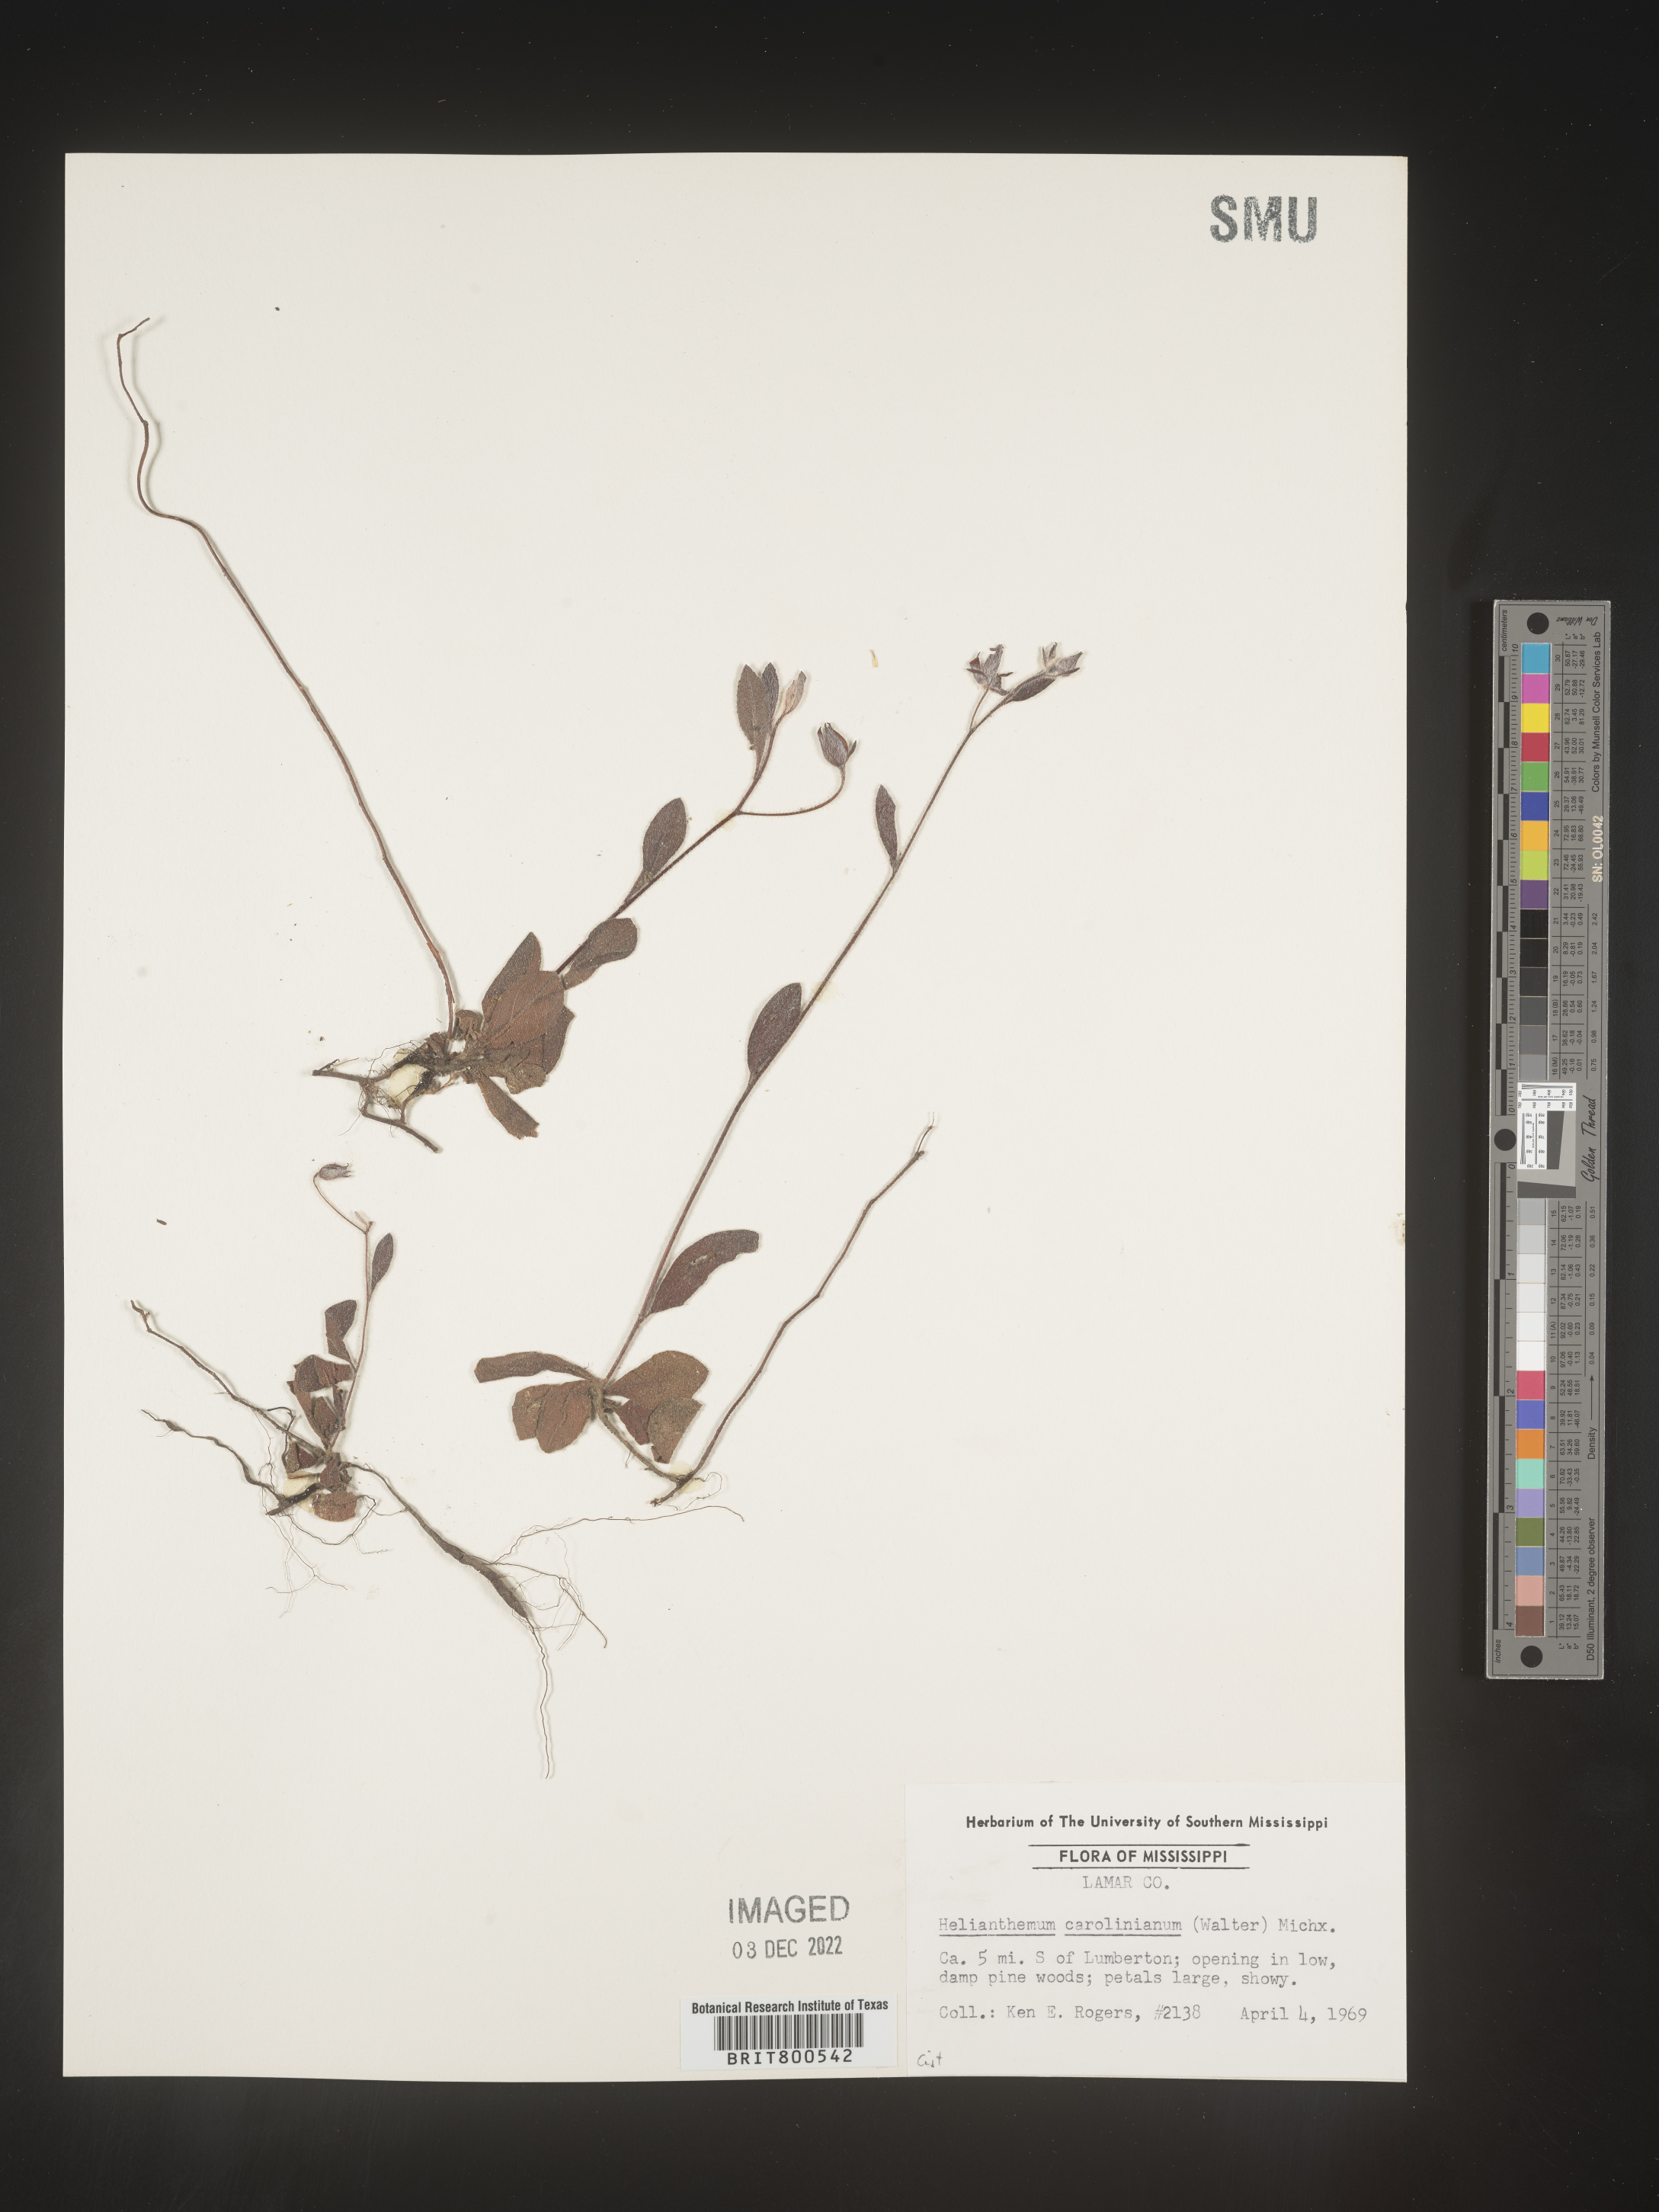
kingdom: Plantae
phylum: Tracheophyta
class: Magnoliopsida
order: Malvales
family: Cistaceae
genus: Crocanthemum
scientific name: Crocanthemum carolinianum
